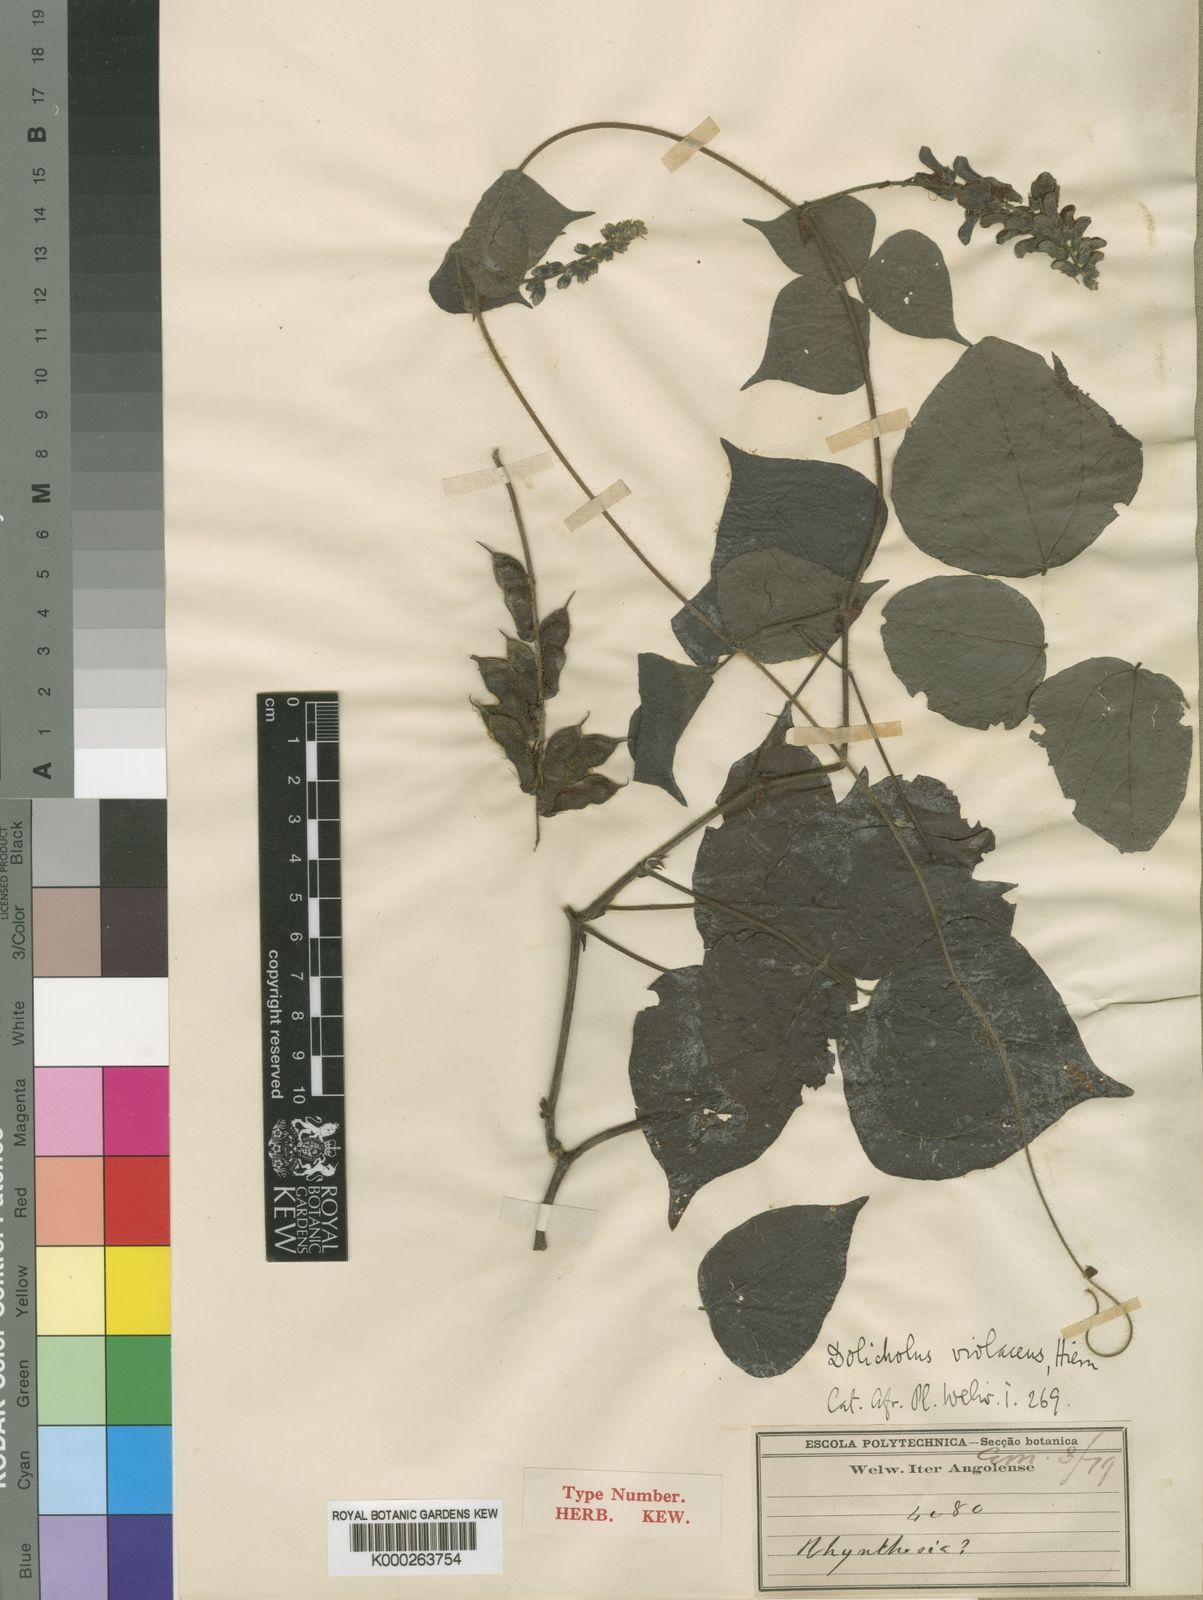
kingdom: Plantae
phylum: Tracheophyta
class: Magnoliopsida
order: Fabales
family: Fabaceae
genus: Rhynchosia
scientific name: Rhynchosia viscosa
